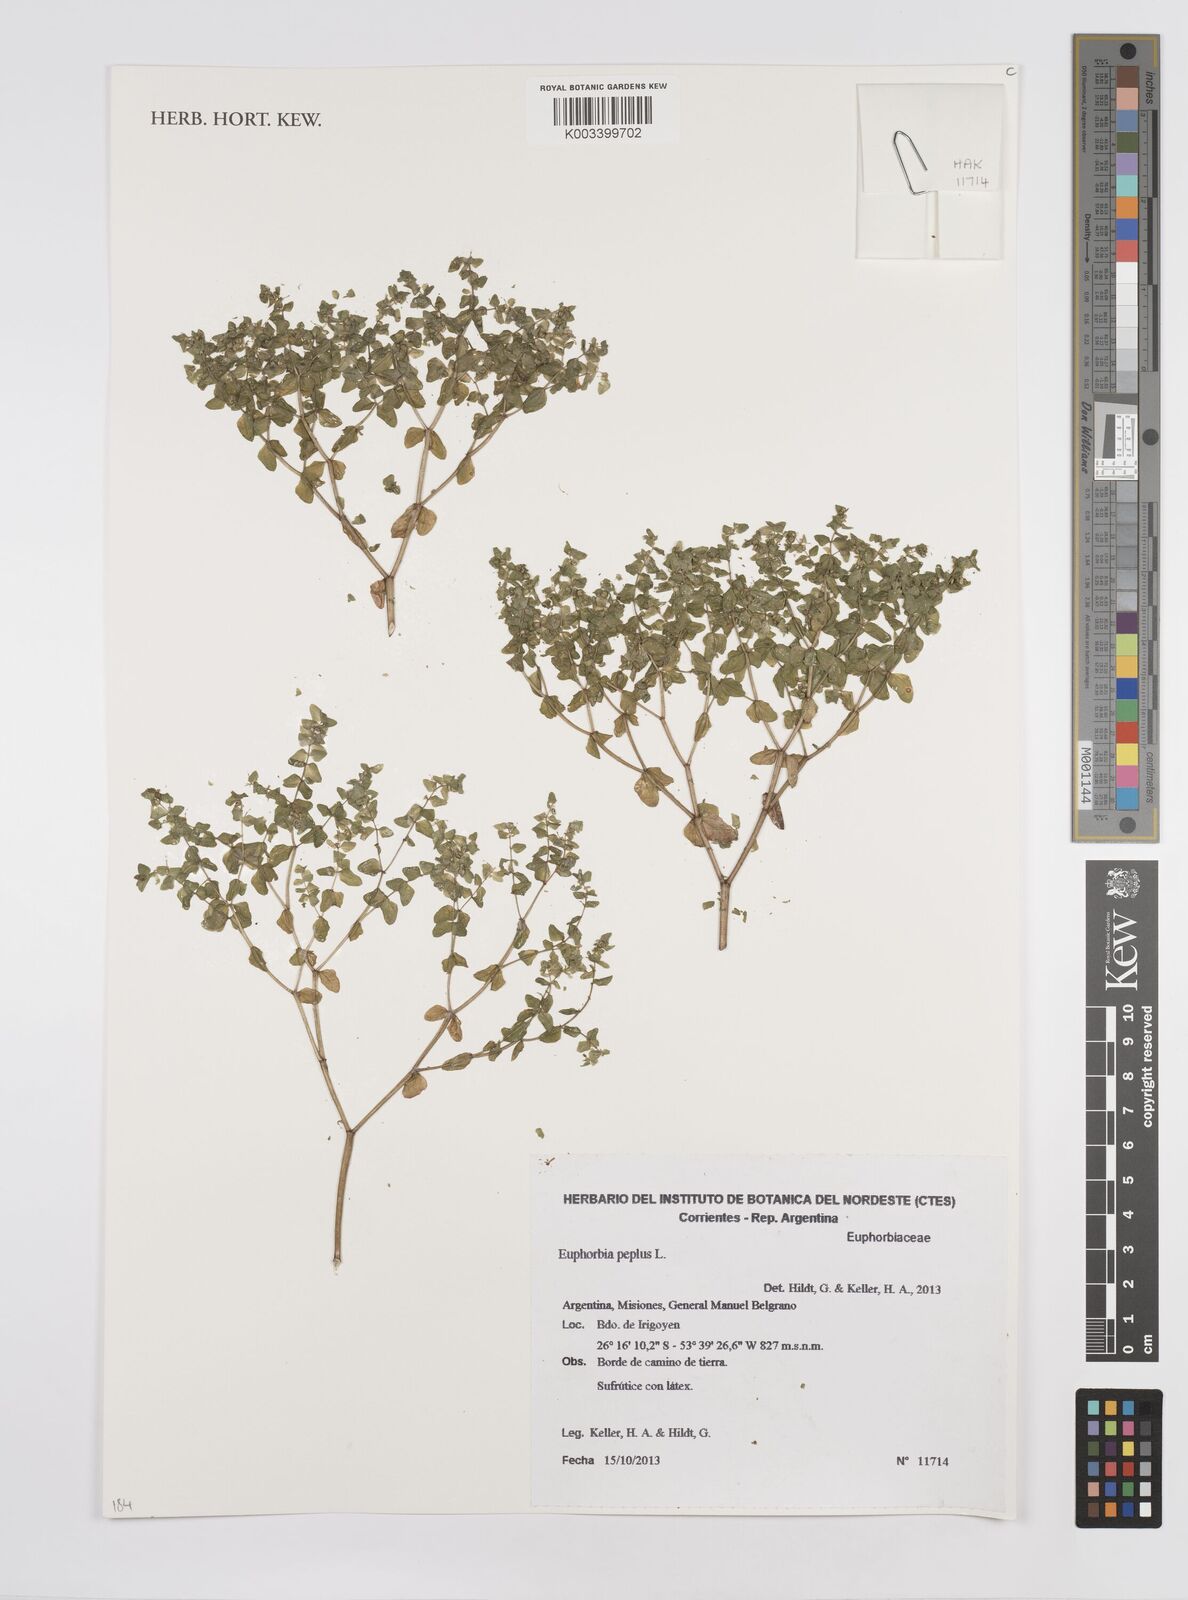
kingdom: Plantae
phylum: Tracheophyta
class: Magnoliopsida
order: Malpighiales
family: Euphorbiaceae
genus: Euphorbia
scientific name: Euphorbia peplus
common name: Petty spurge
